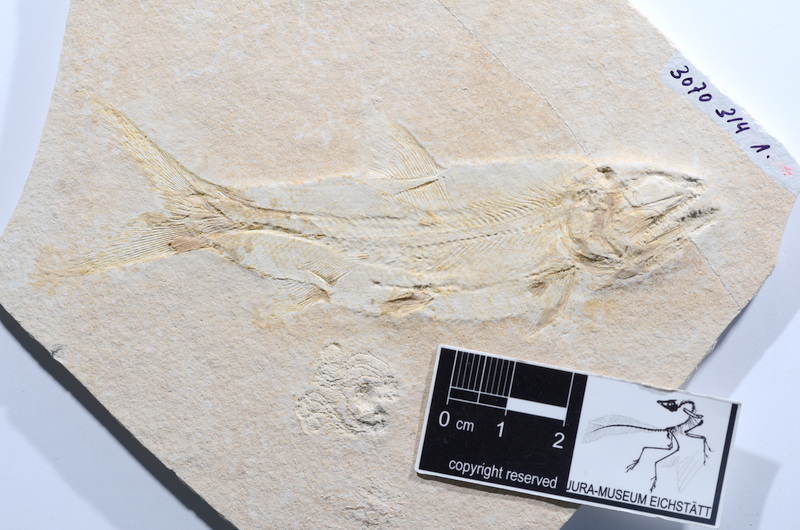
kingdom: Animalia
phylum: Chordata
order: Amiiformes
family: Caturidae
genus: Caturus
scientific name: Caturus furcatus
